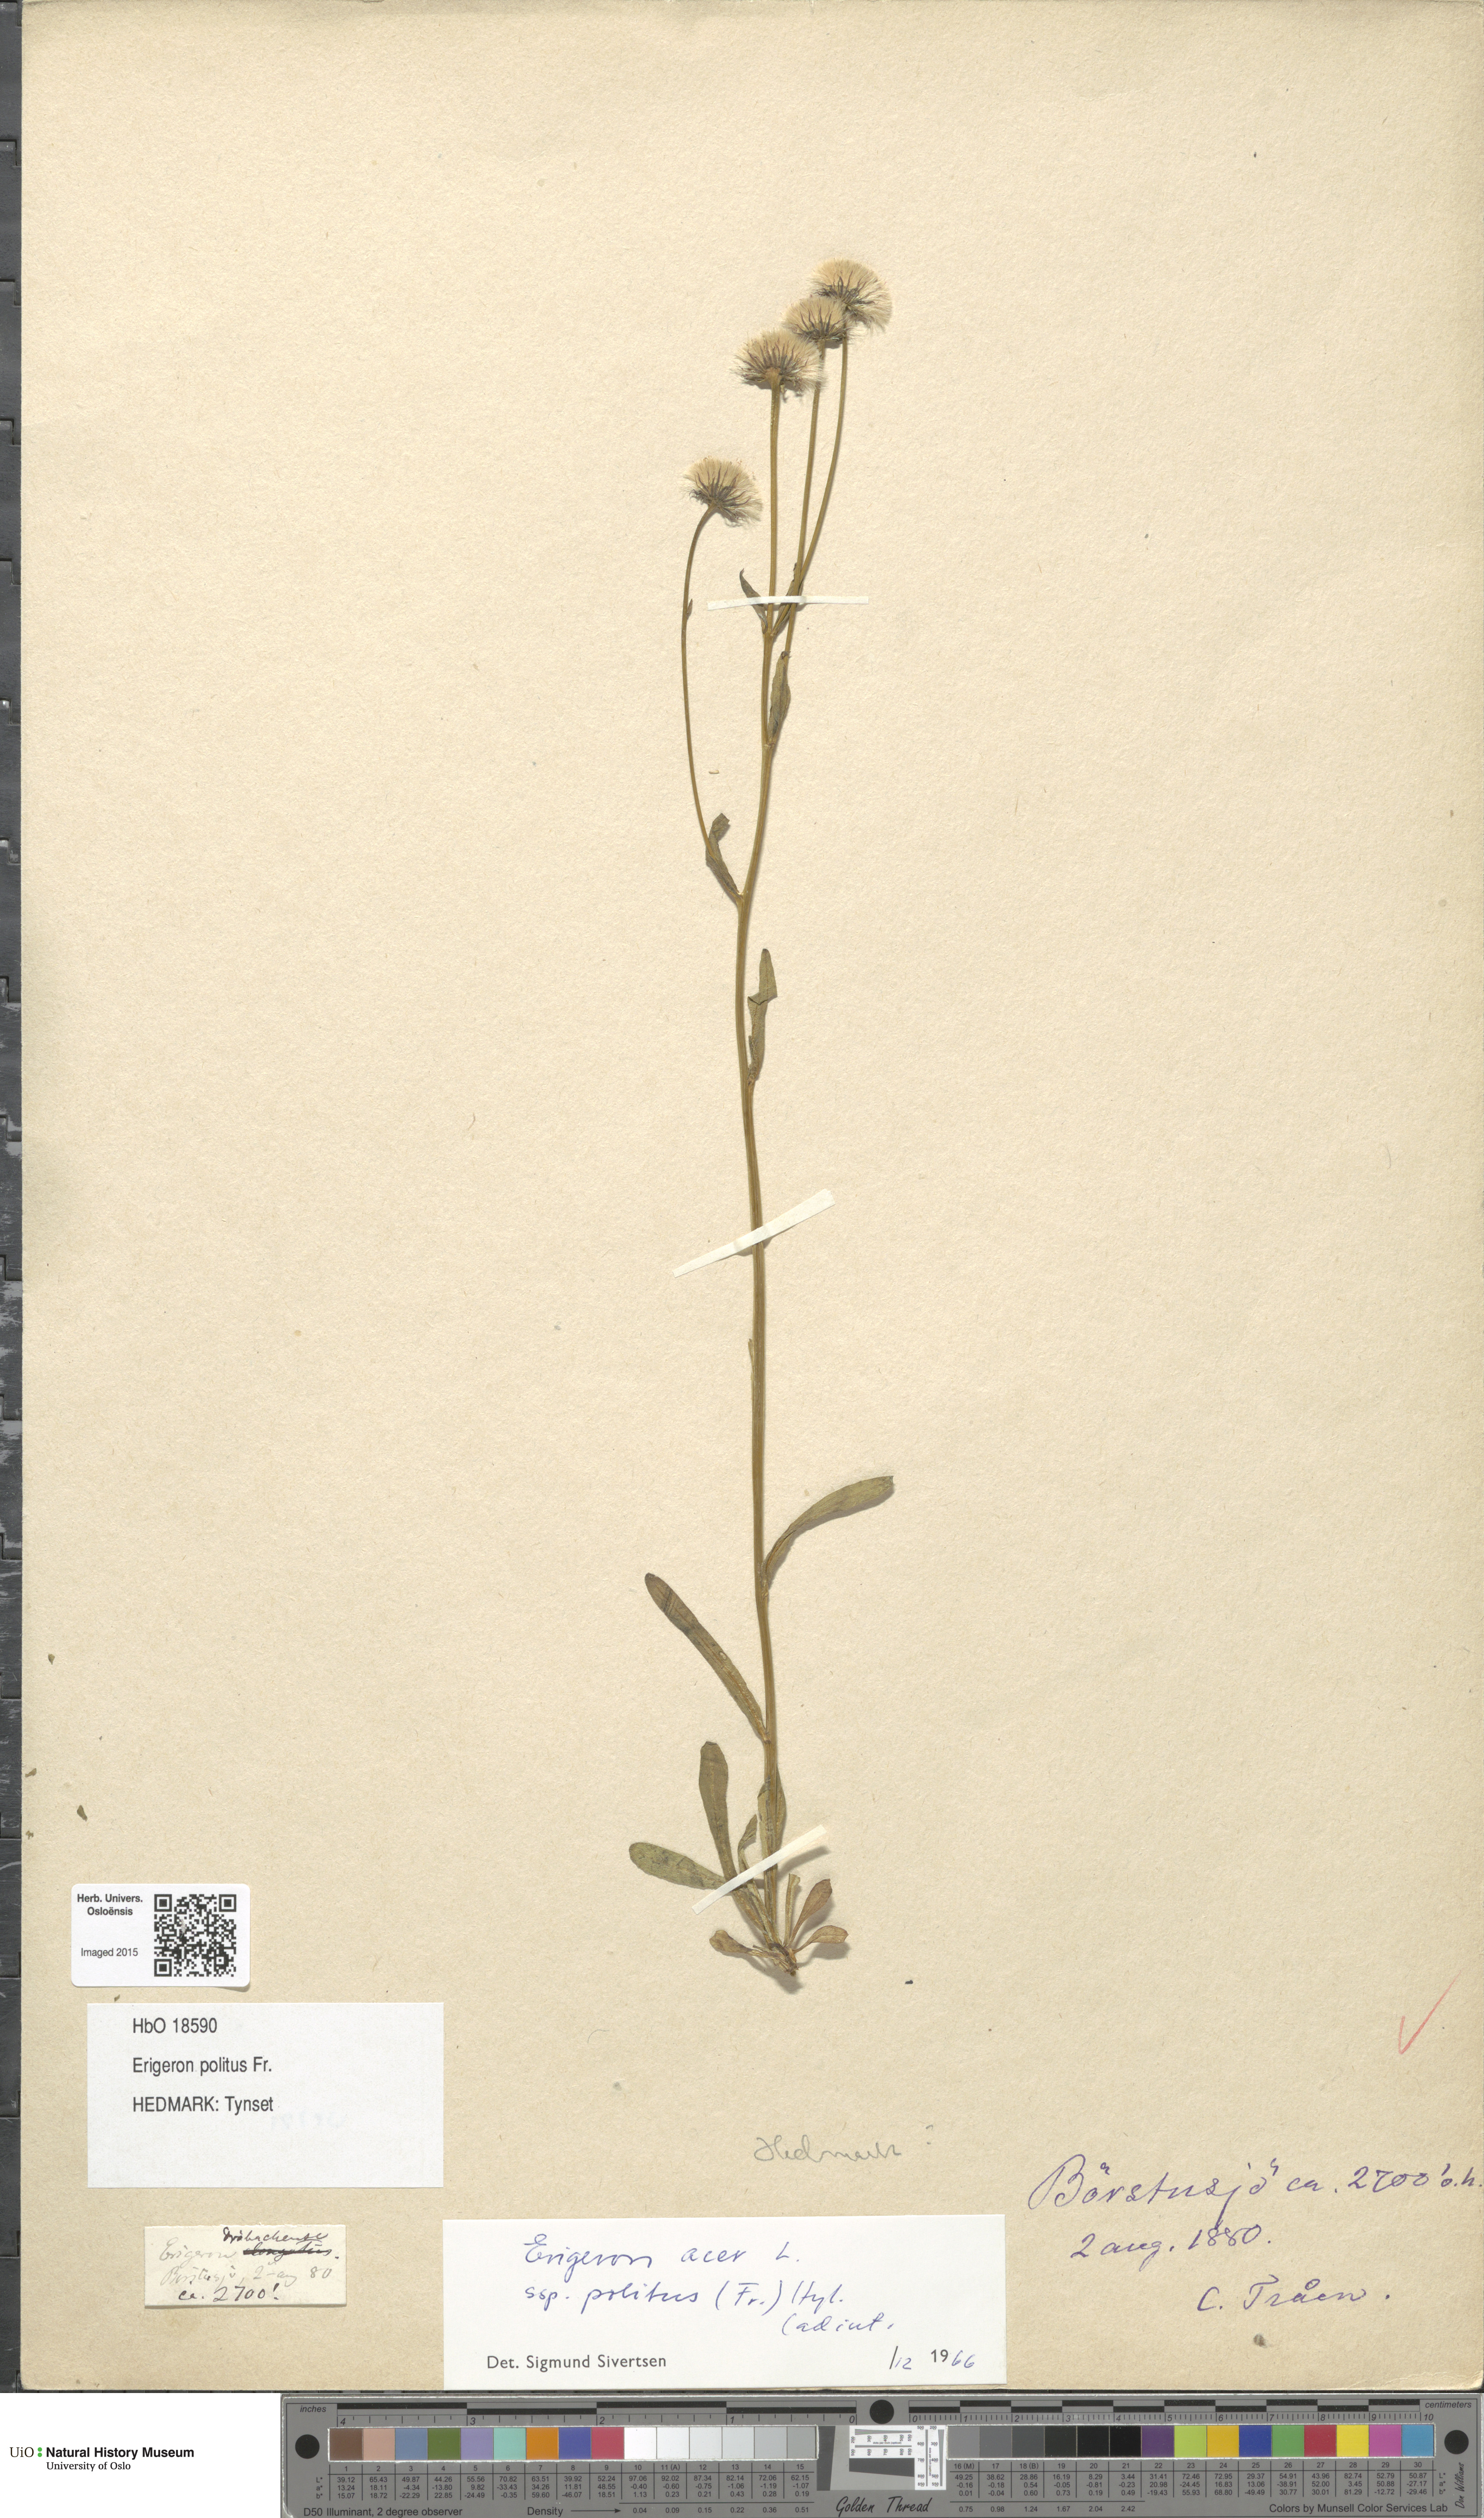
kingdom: Plantae
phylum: Tracheophyta
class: Magnoliopsida
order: Asterales
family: Asteraceae
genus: Erigeron
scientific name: Erigeron politus
